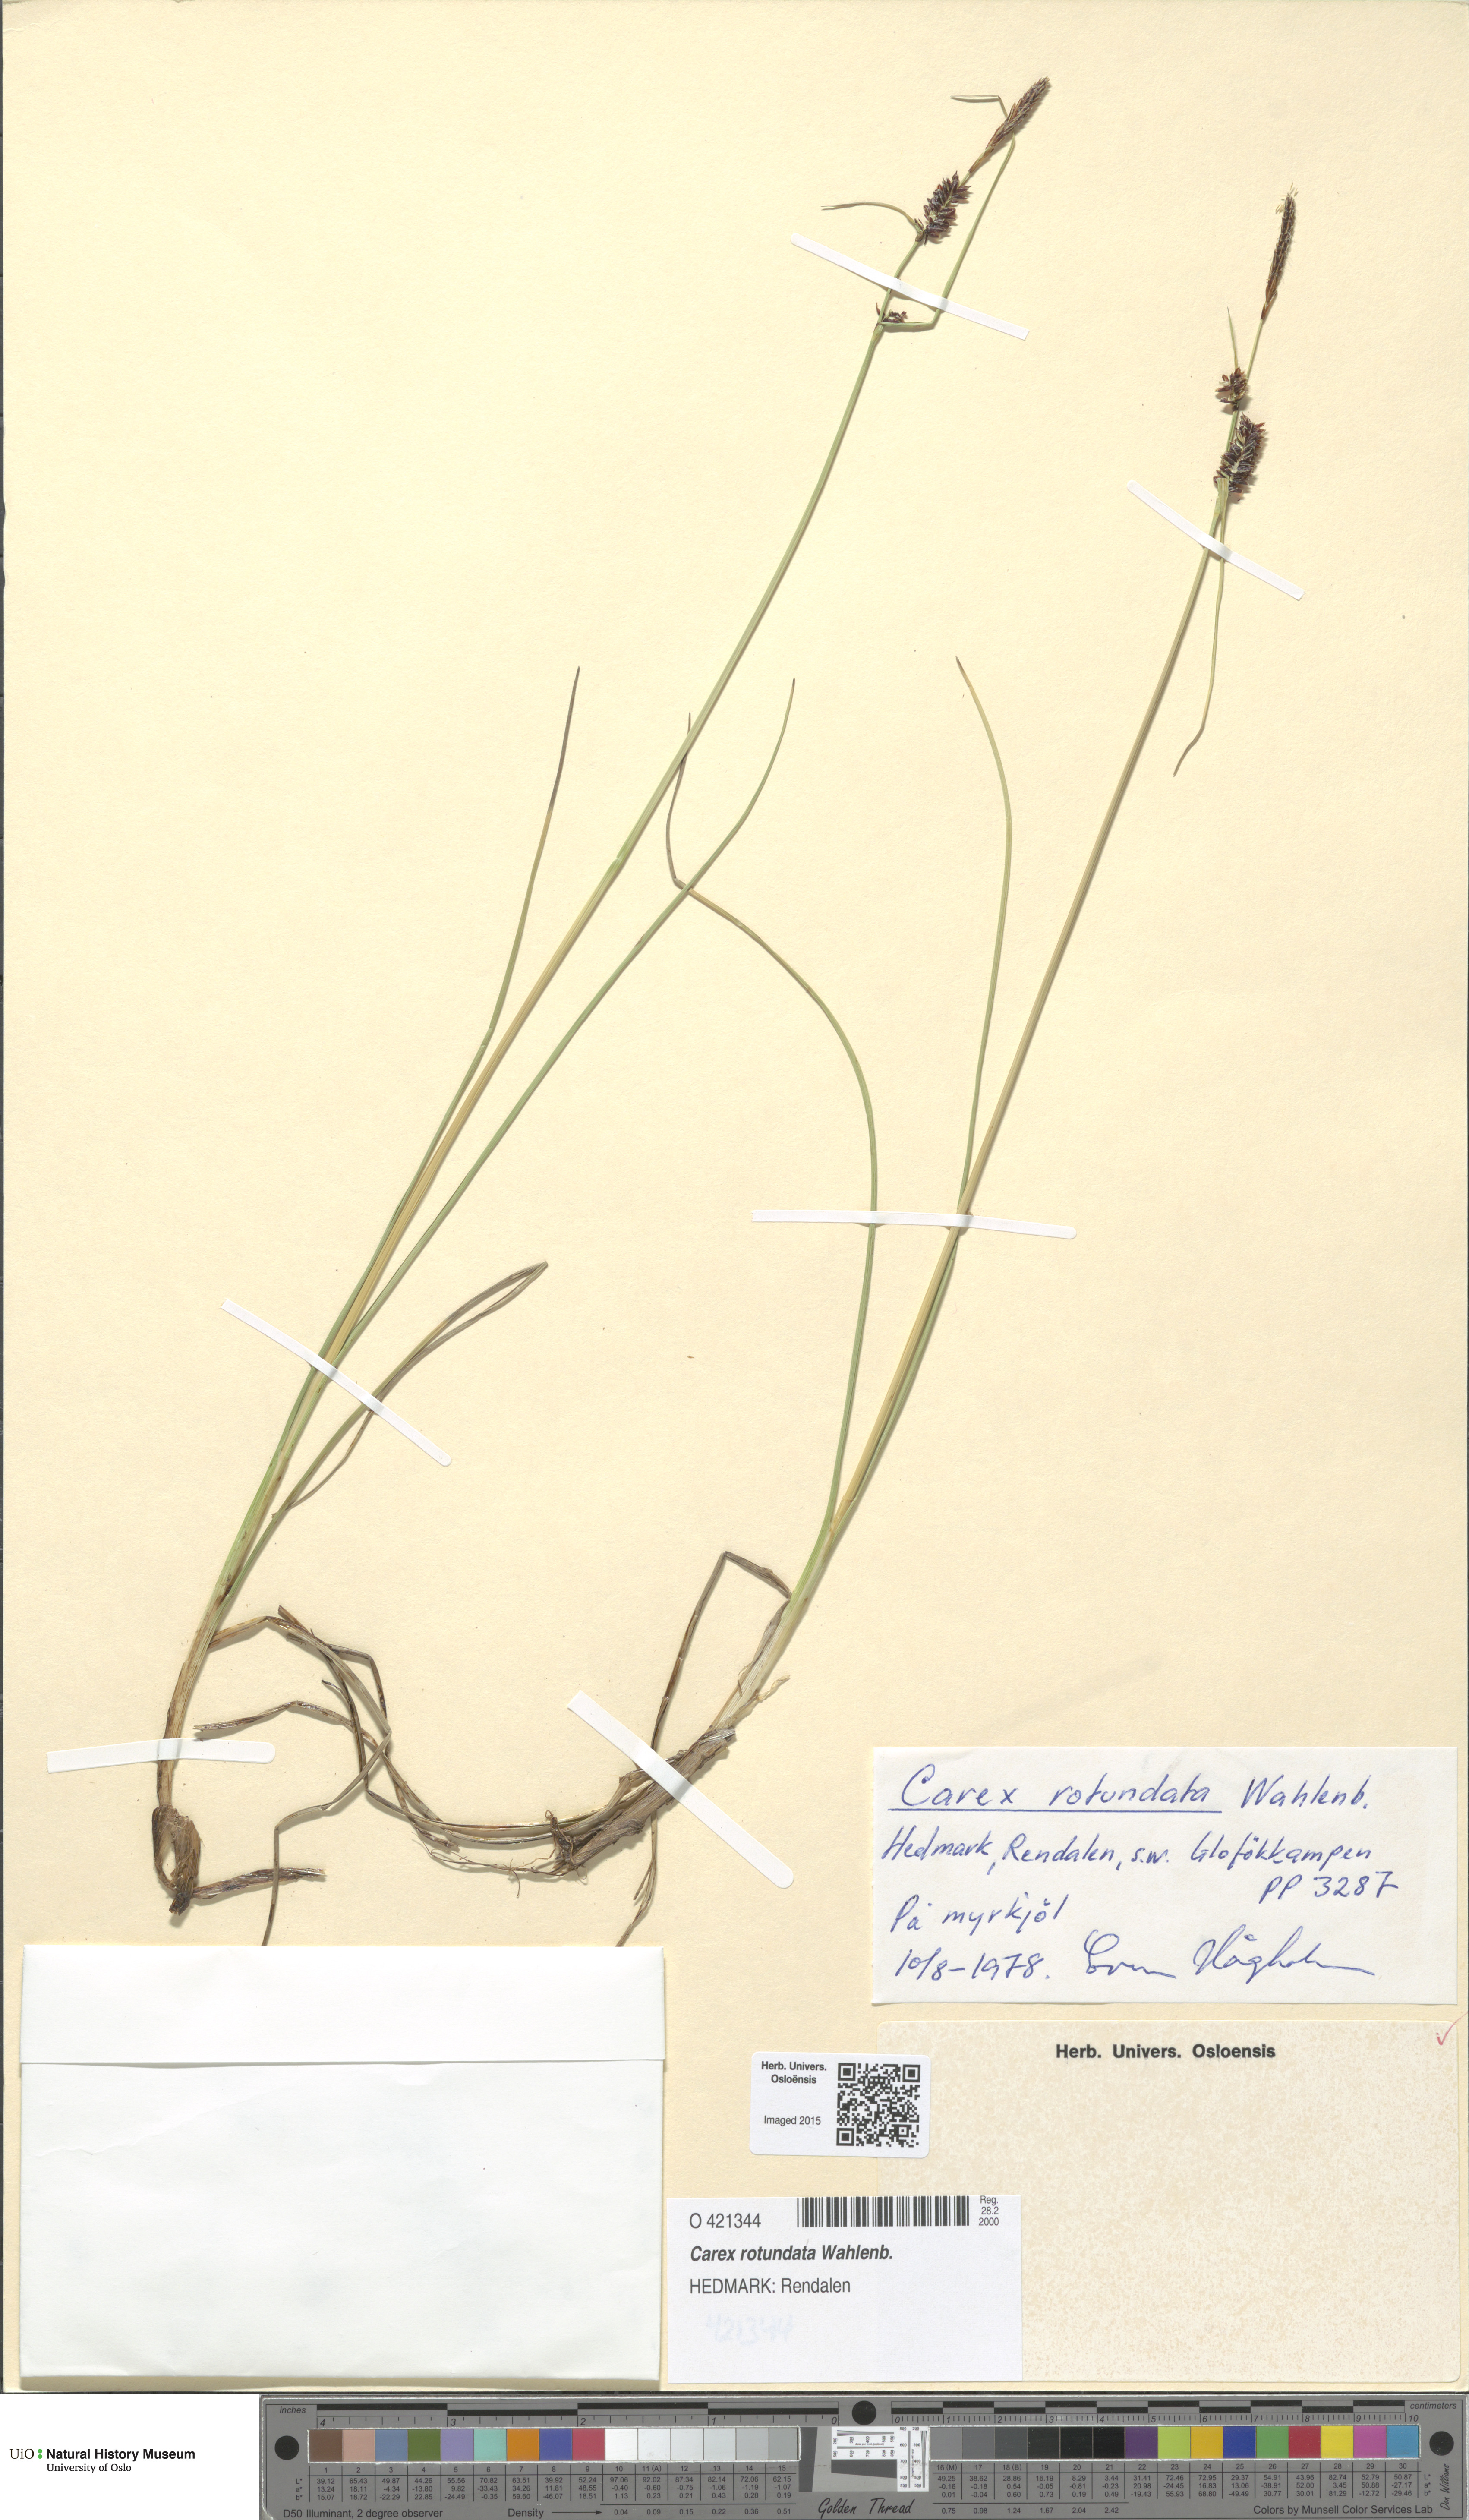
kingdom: Plantae
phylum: Tracheophyta
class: Liliopsida
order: Poales
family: Cyperaceae
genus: Carex
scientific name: Carex rotundata
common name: Round-fruited sedge
